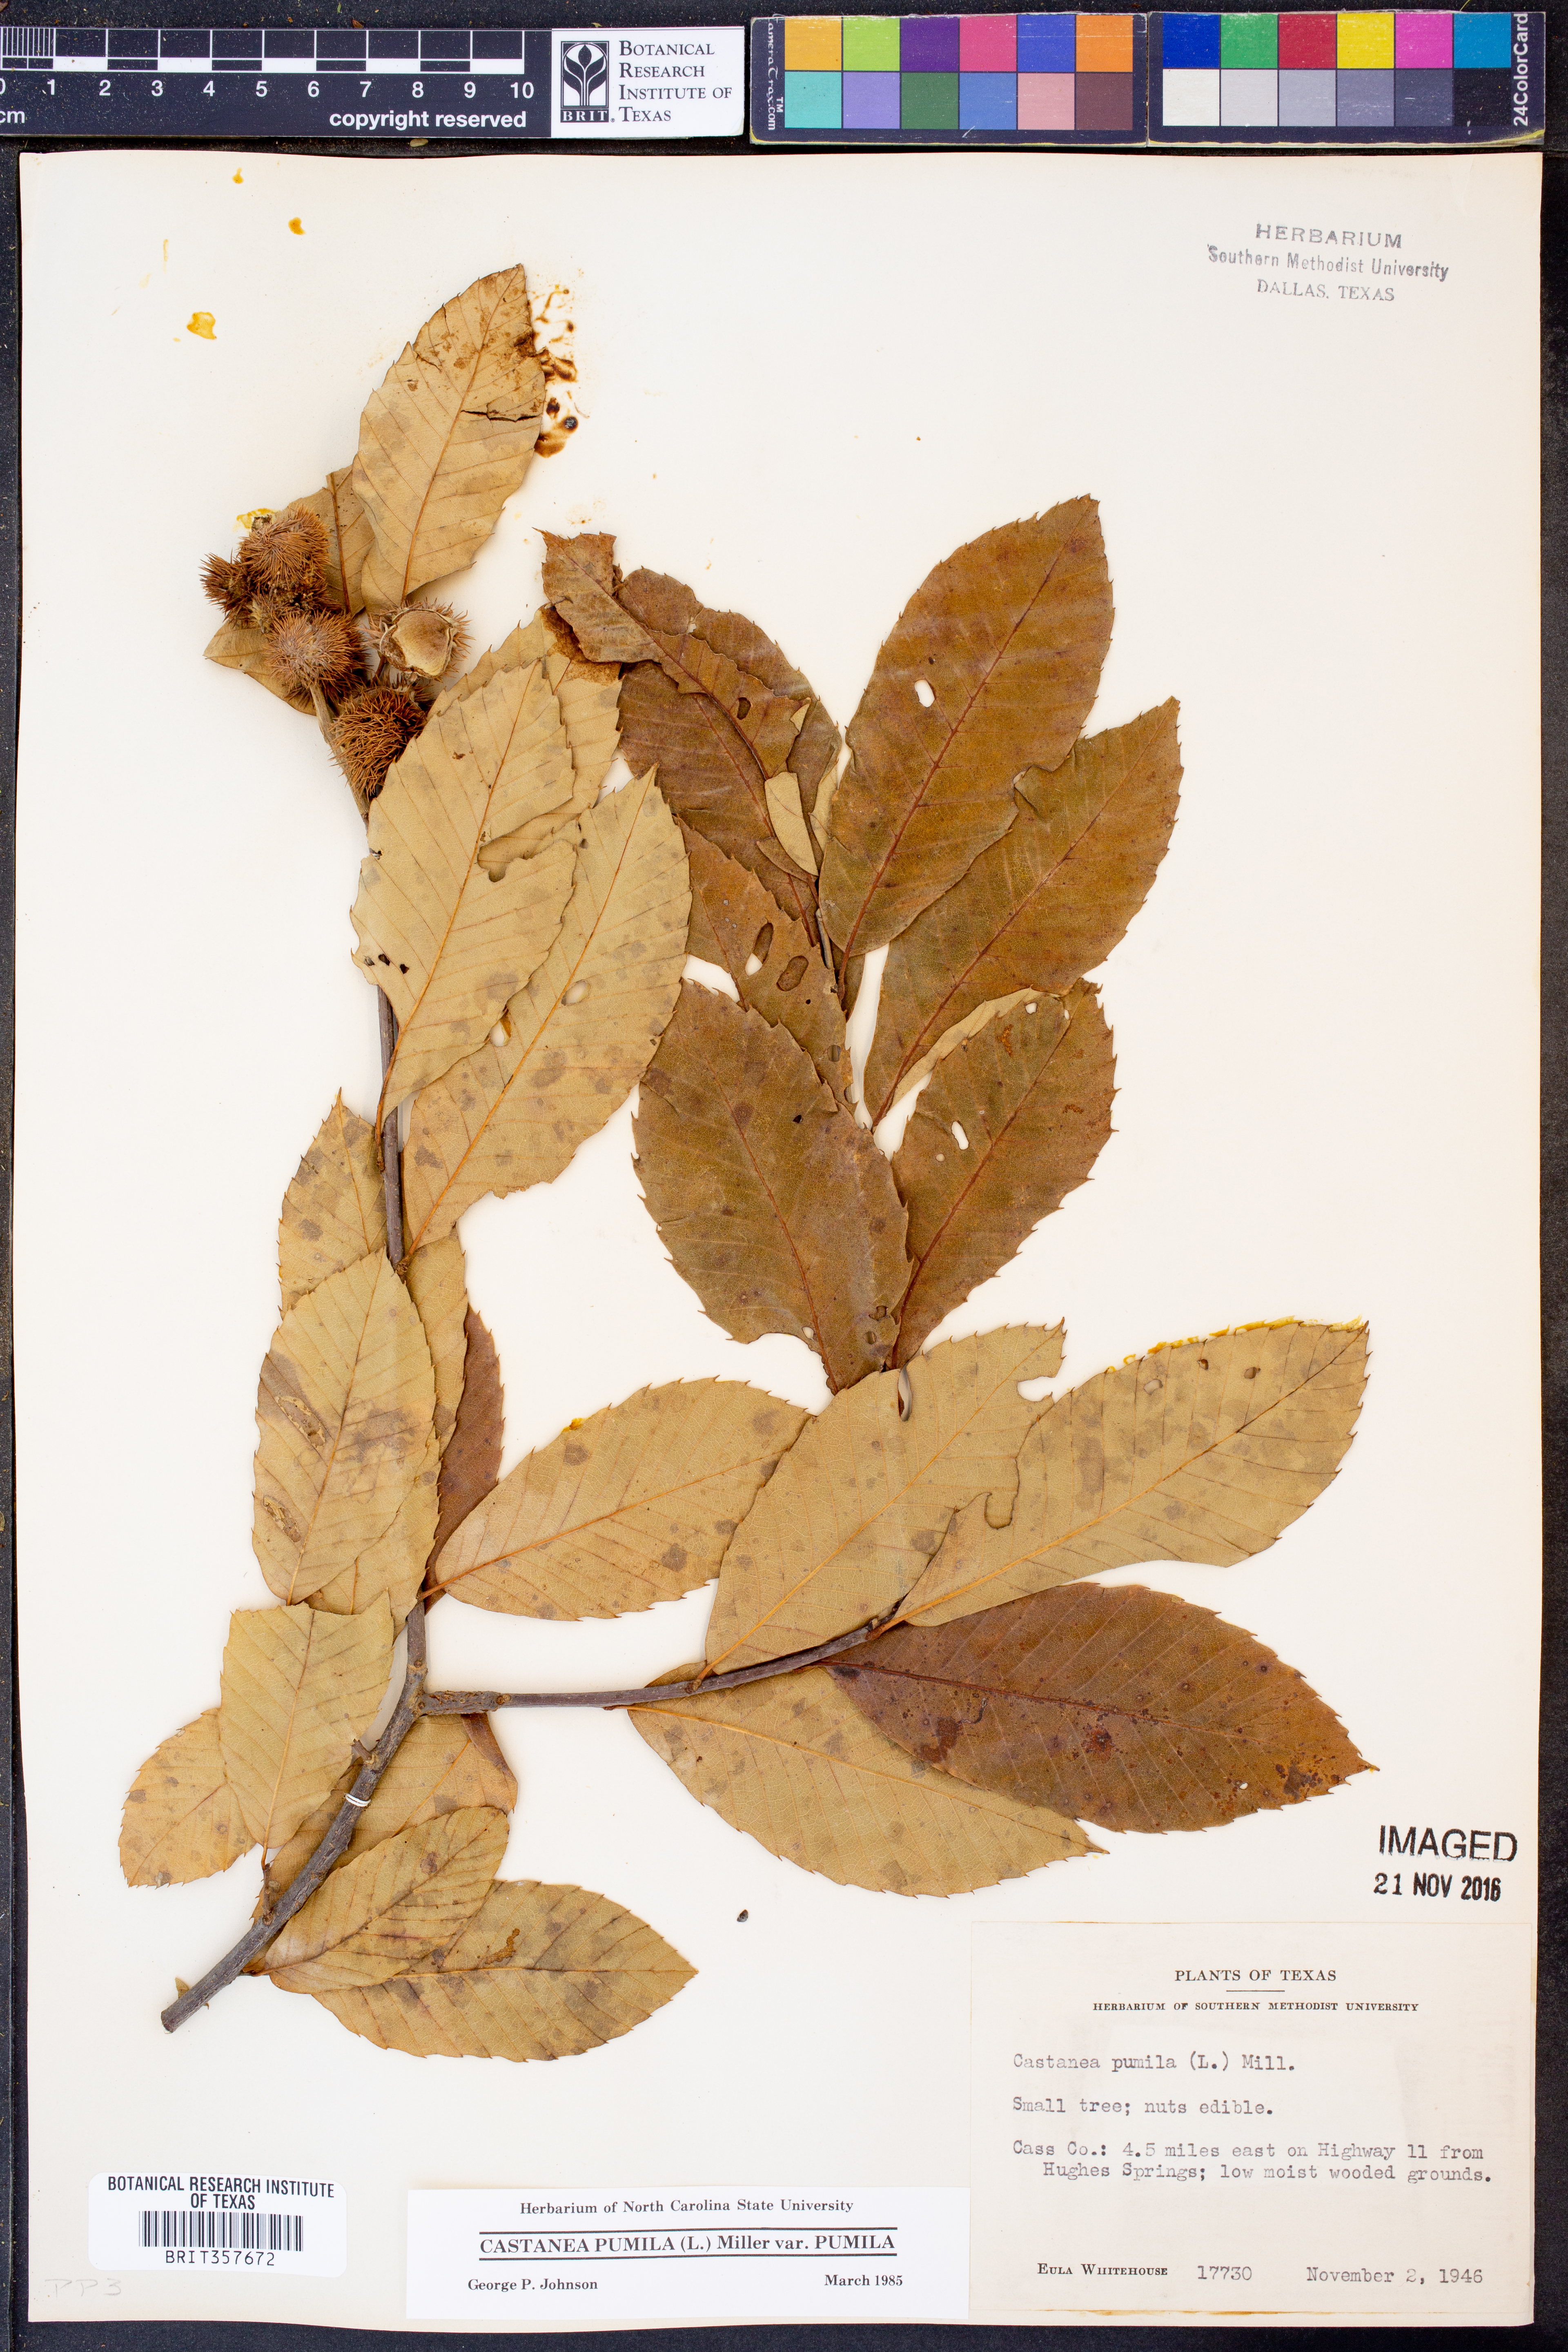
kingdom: Plantae
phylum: Tracheophyta
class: Magnoliopsida
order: Fagales
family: Fagaceae
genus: Castanea
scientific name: Castanea pumila
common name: Chinkapin
